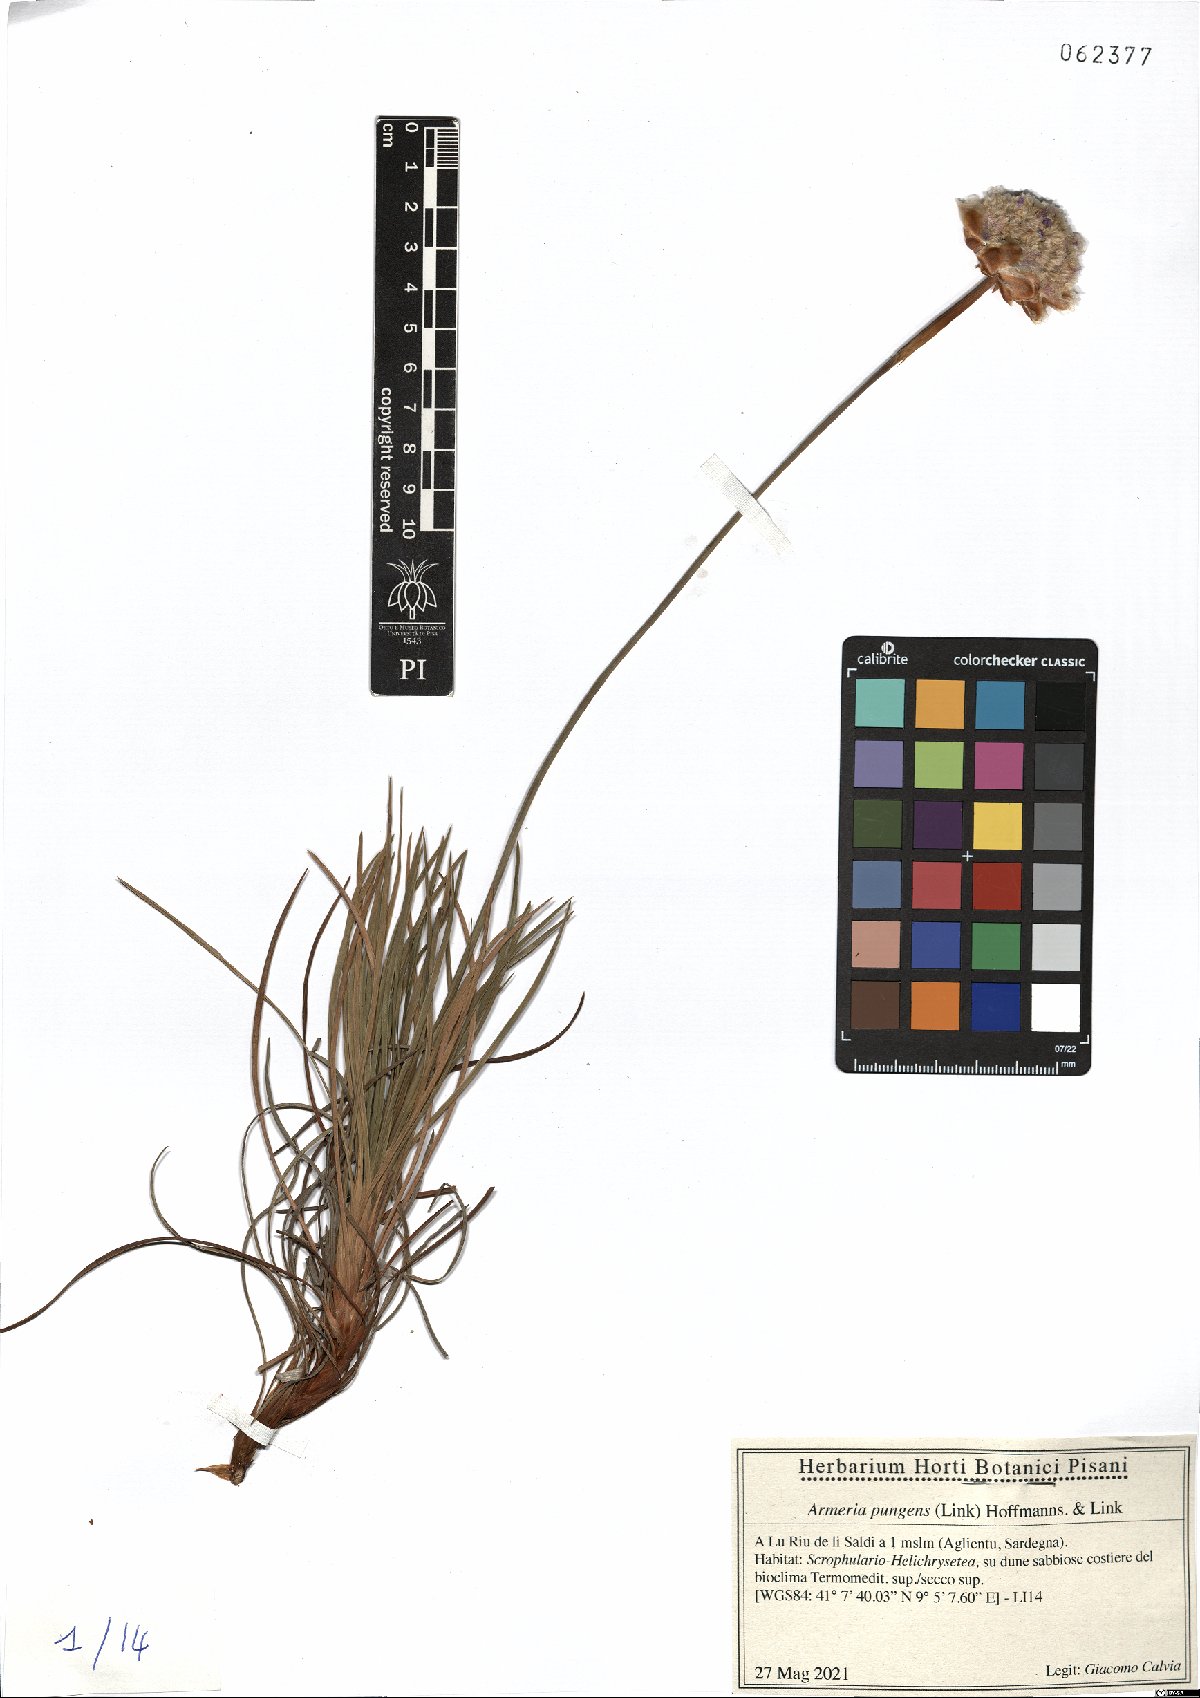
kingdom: Plantae
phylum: Tracheophyta
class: Magnoliopsida
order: Caryophyllales
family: Plumbaginaceae
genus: Armeria
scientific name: Armeria pungens
